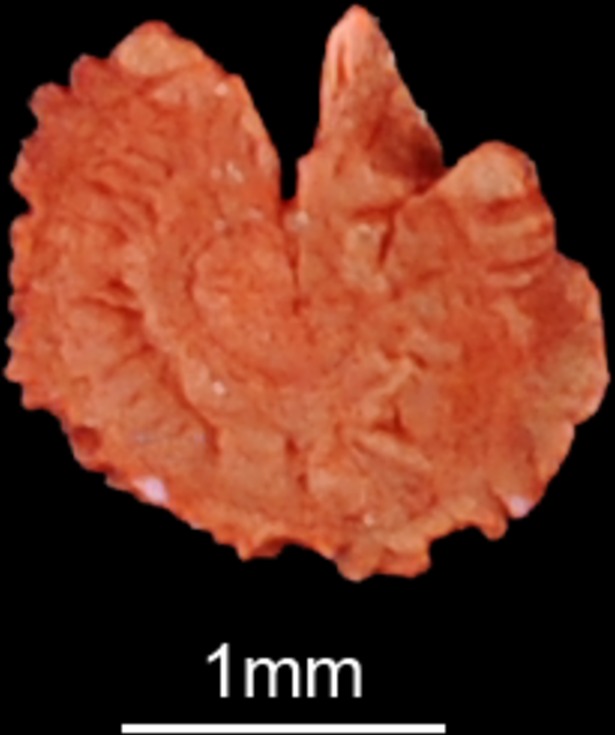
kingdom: Animalia
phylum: Chordata
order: Siluriformes
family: Mochokidae
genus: Synodontis
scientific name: Synodontis serratus
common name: Shield-head catfish
